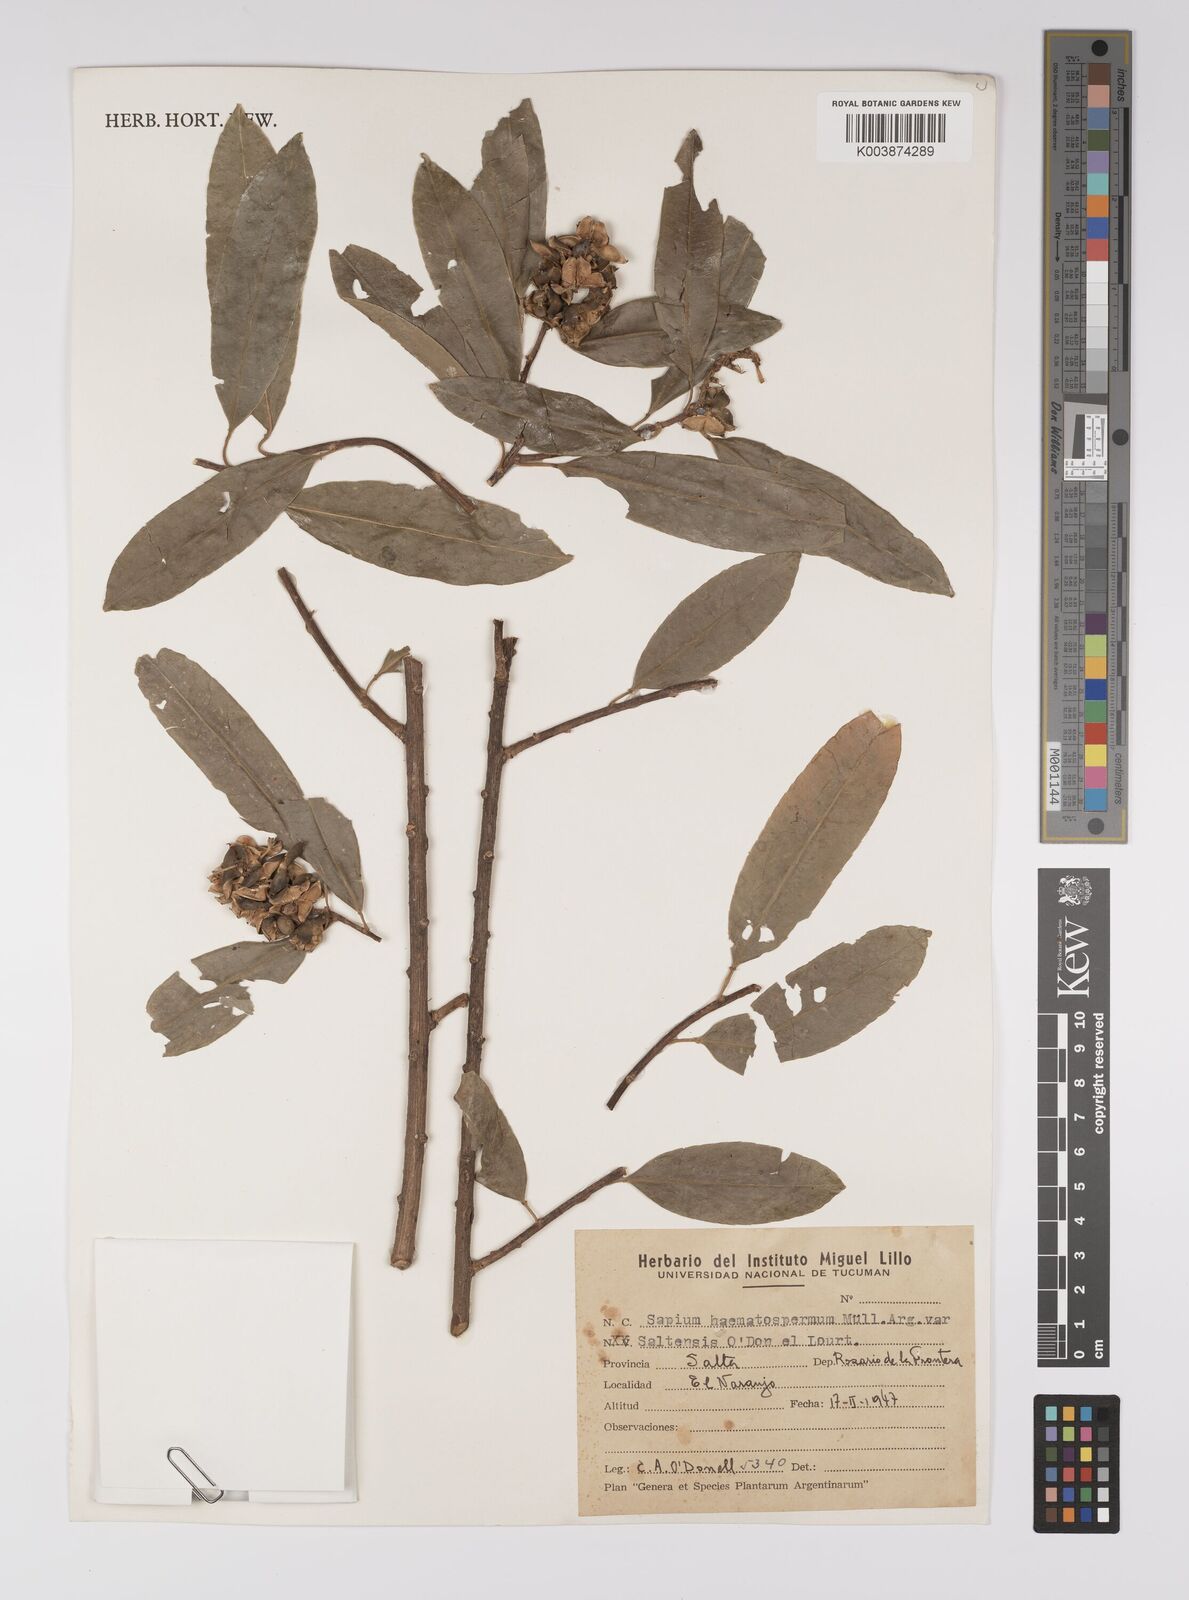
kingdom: Plantae
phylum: Tracheophyta
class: Magnoliopsida
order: Malpighiales
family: Euphorbiaceae
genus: Sapium
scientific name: Sapium haematospermum
